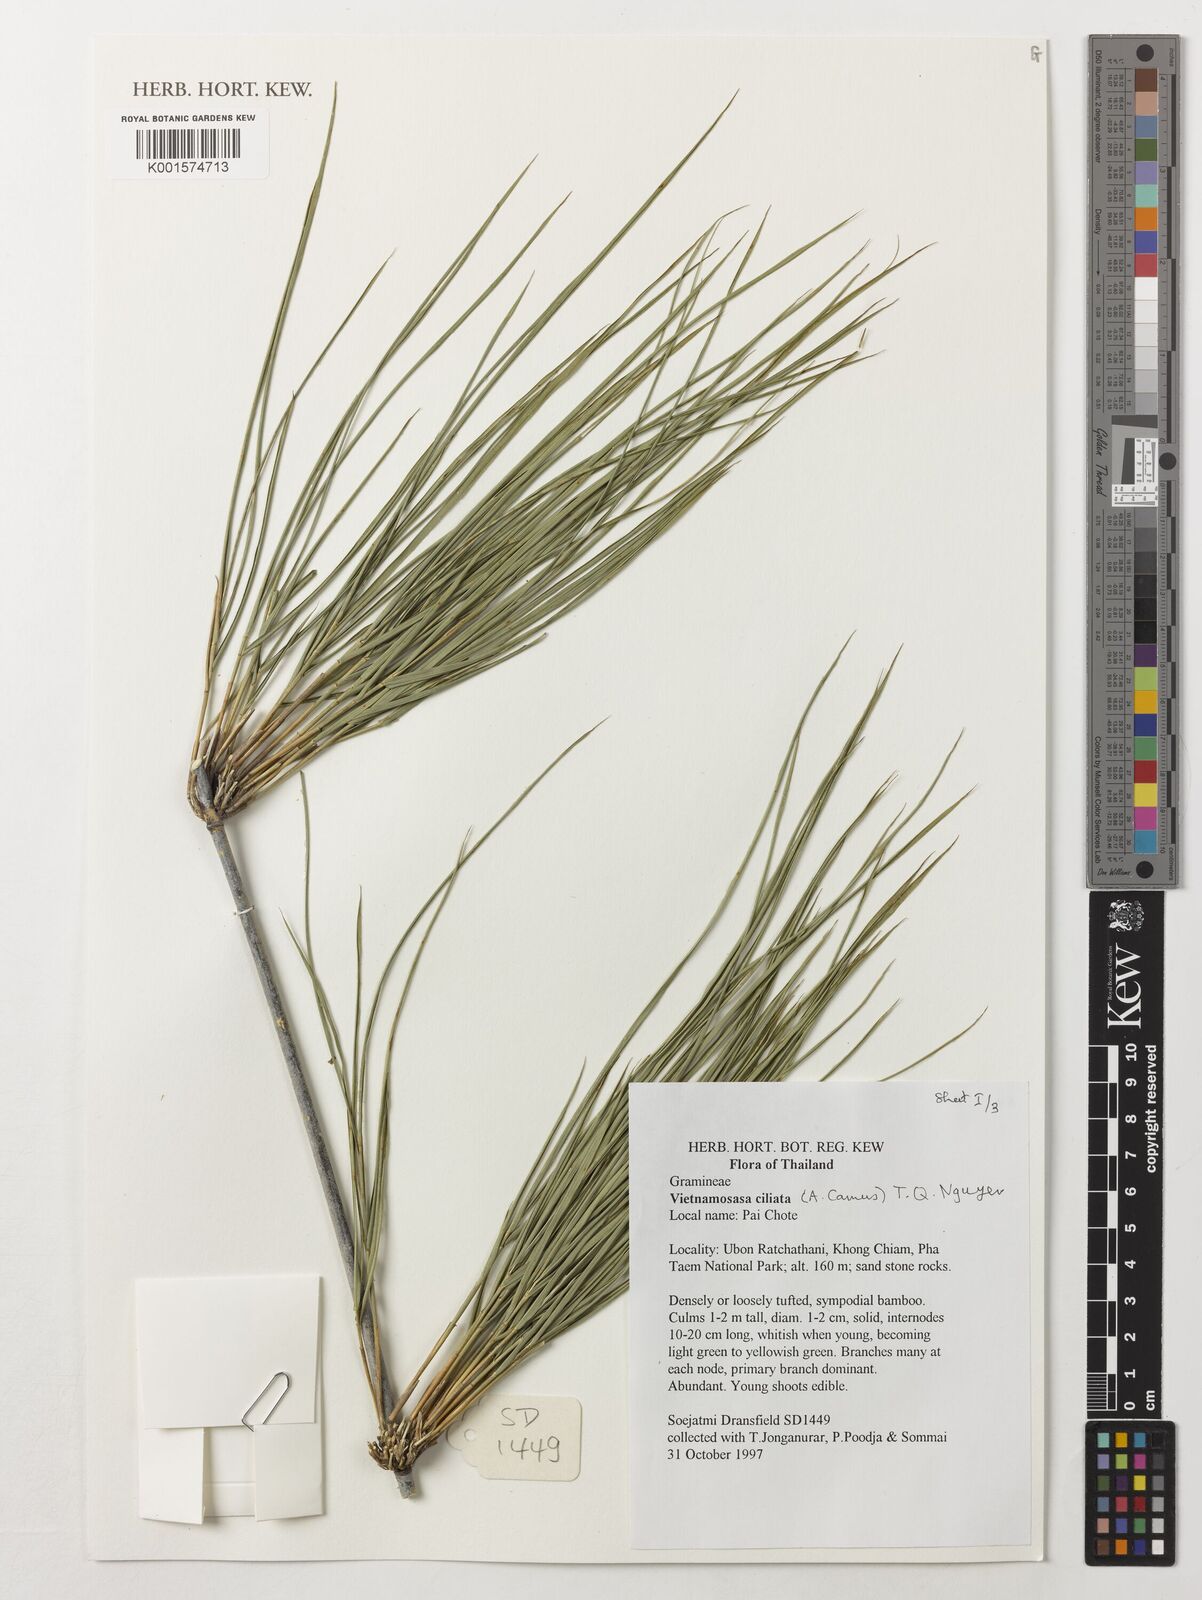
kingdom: Plantae
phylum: Tracheophyta
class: Liliopsida
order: Poales
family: Poaceae
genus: Vietnamosasa
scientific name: Vietnamosasa ciliata
